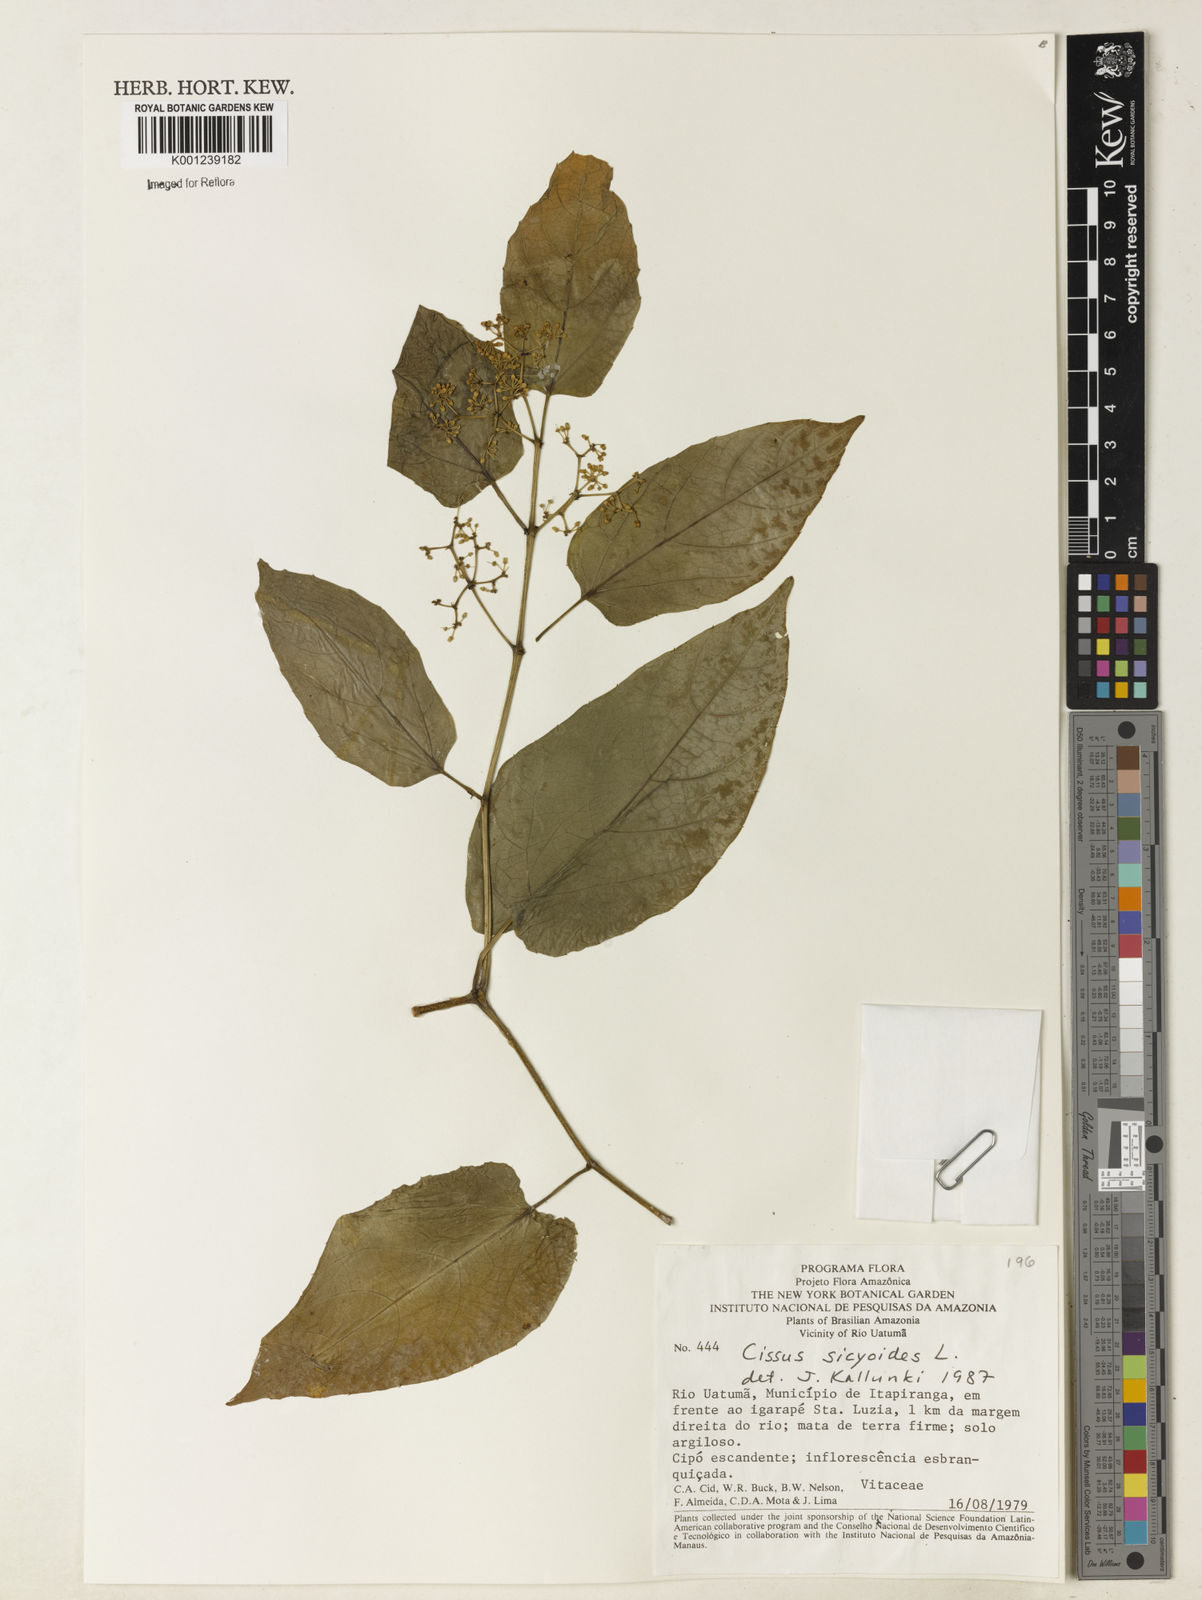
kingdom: Plantae
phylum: Tracheophyta
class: Magnoliopsida
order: Vitales
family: Vitaceae
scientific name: Vitaceae
